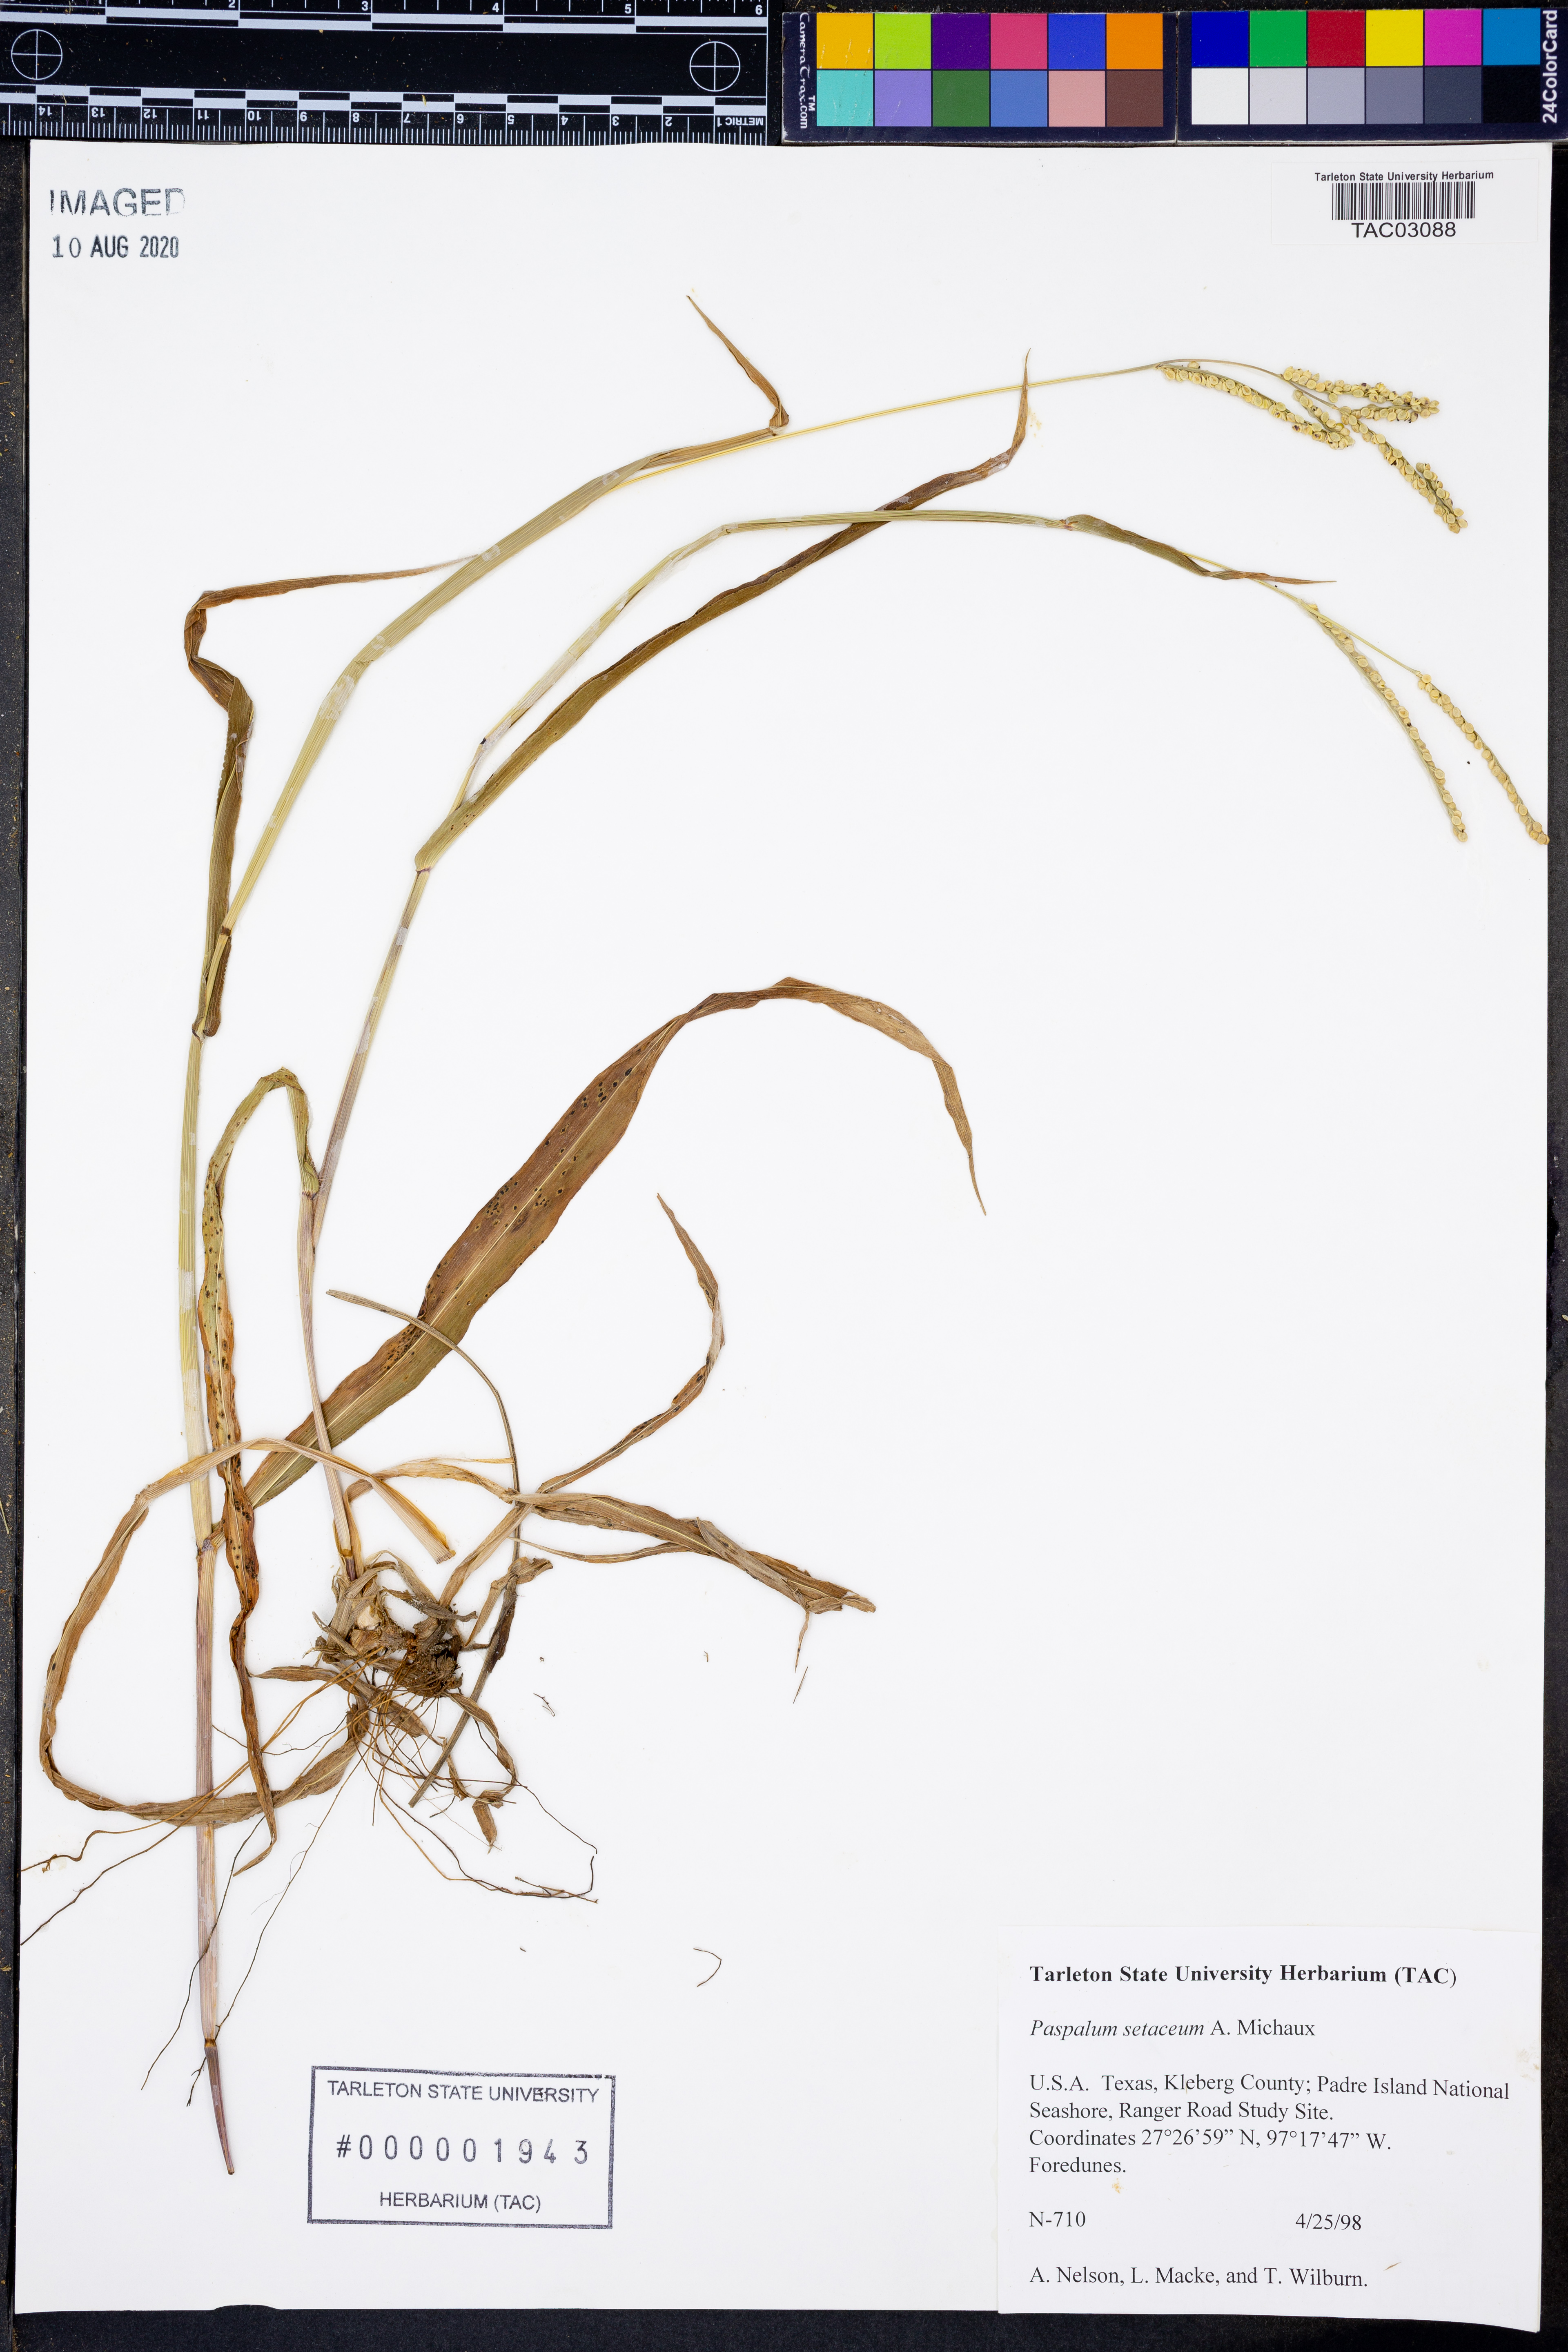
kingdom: Plantae
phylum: Tracheophyta
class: Liliopsida
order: Poales
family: Poaceae
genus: Paspalum
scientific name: Paspalum setaceum
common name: Slender paspalum
